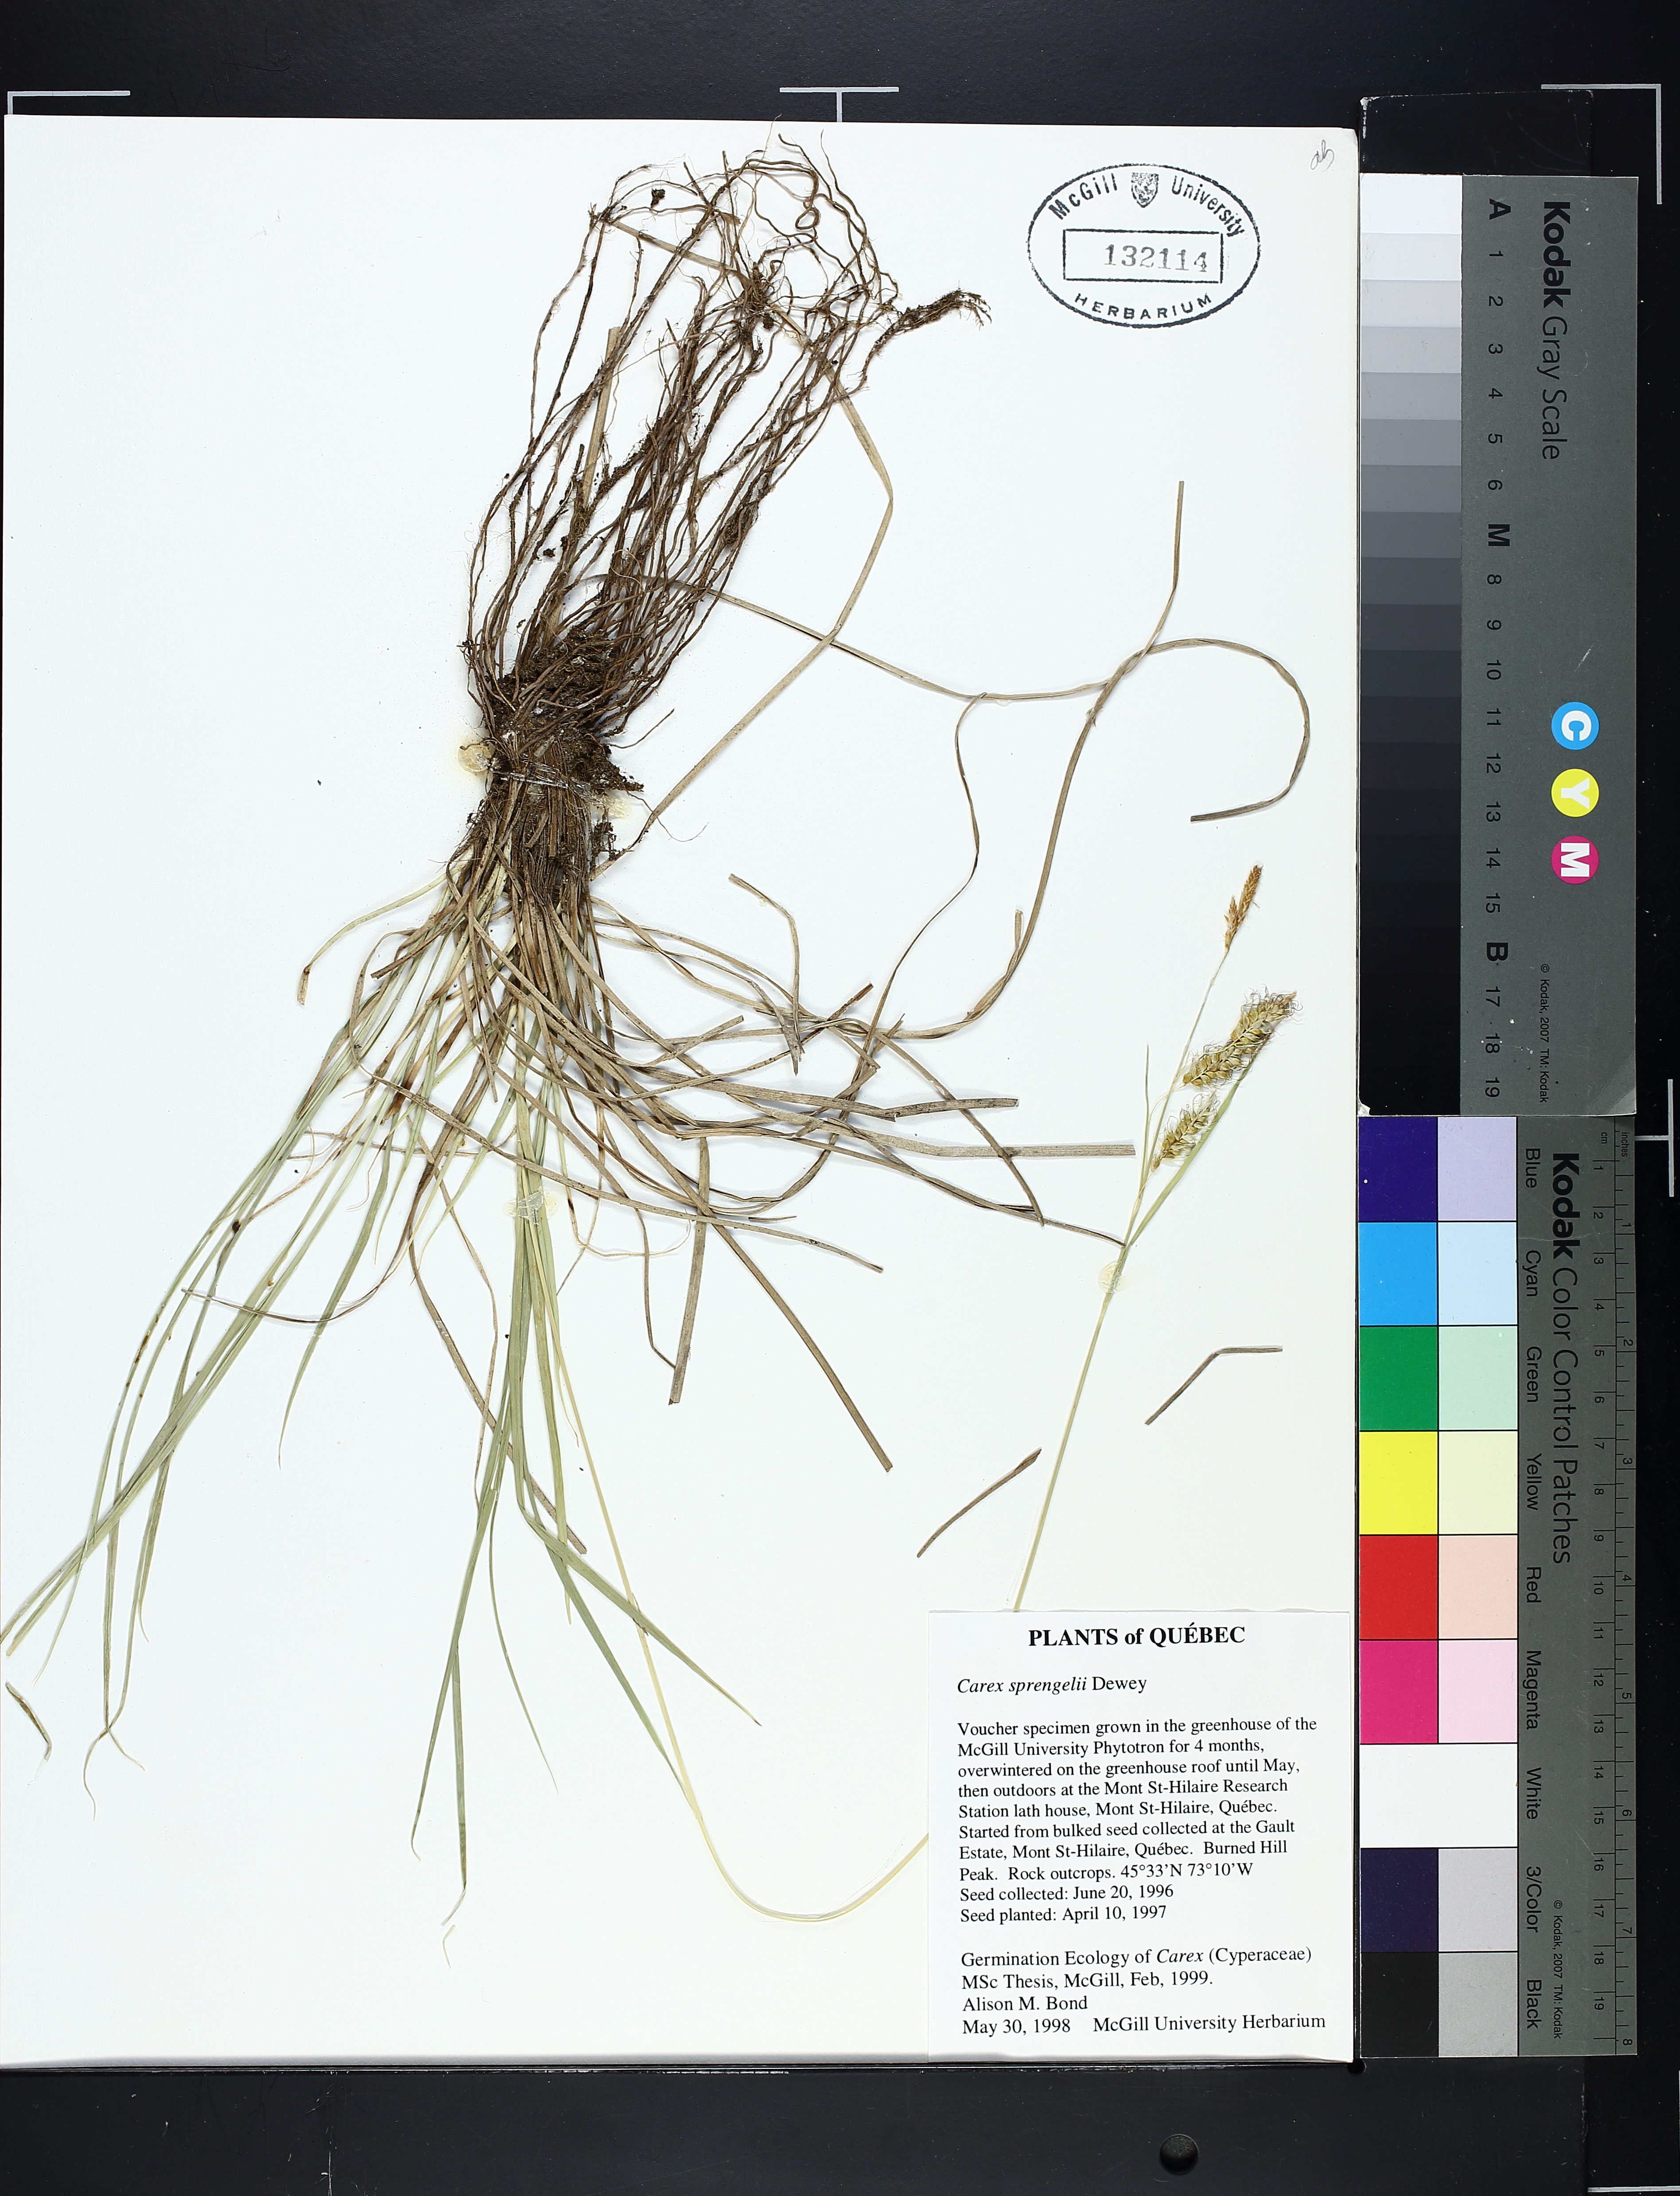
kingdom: Plantae
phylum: Tracheophyta
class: Liliopsida
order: Poales
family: Cyperaceae
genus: Carex
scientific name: Carex sprengelii
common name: Long-beaked sedge
